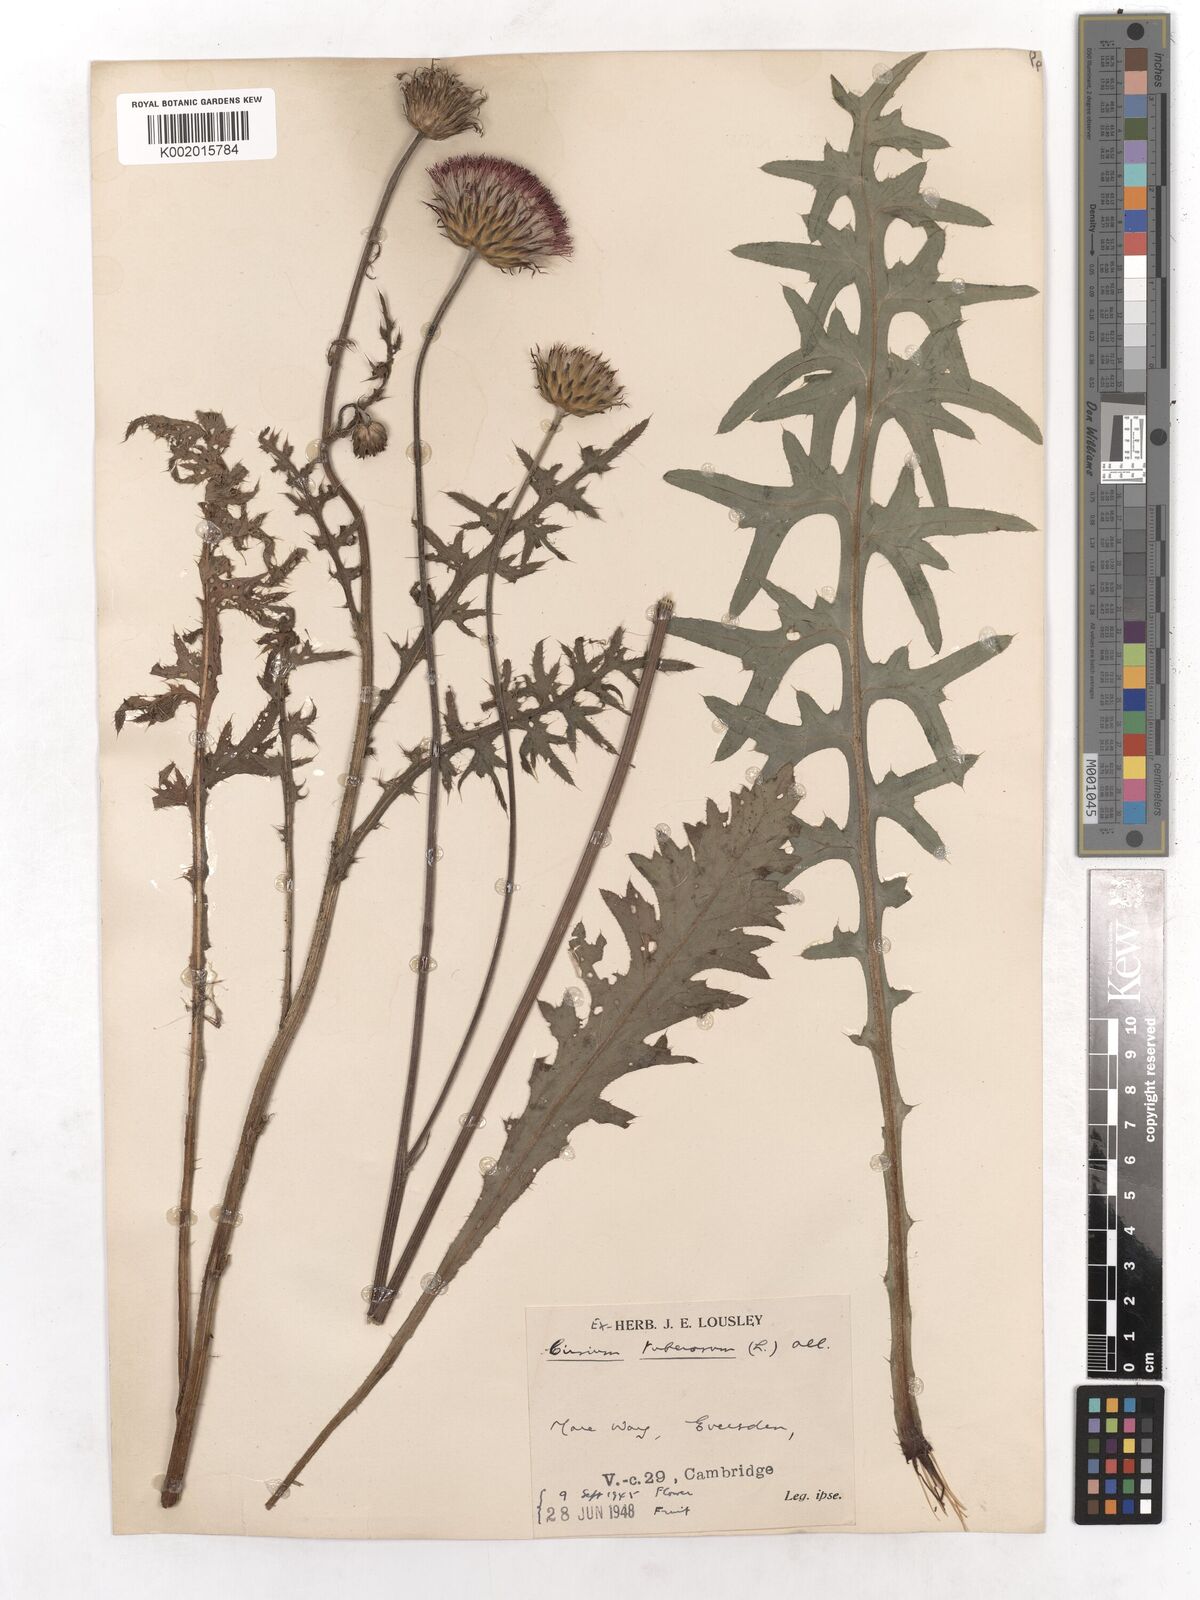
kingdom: Plantae
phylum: Tracheophyta
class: Magnoliopsida
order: Asterales
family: Asteraceae
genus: Cirsium
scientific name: Cirsium tuberosum
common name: Tuberous thistle
